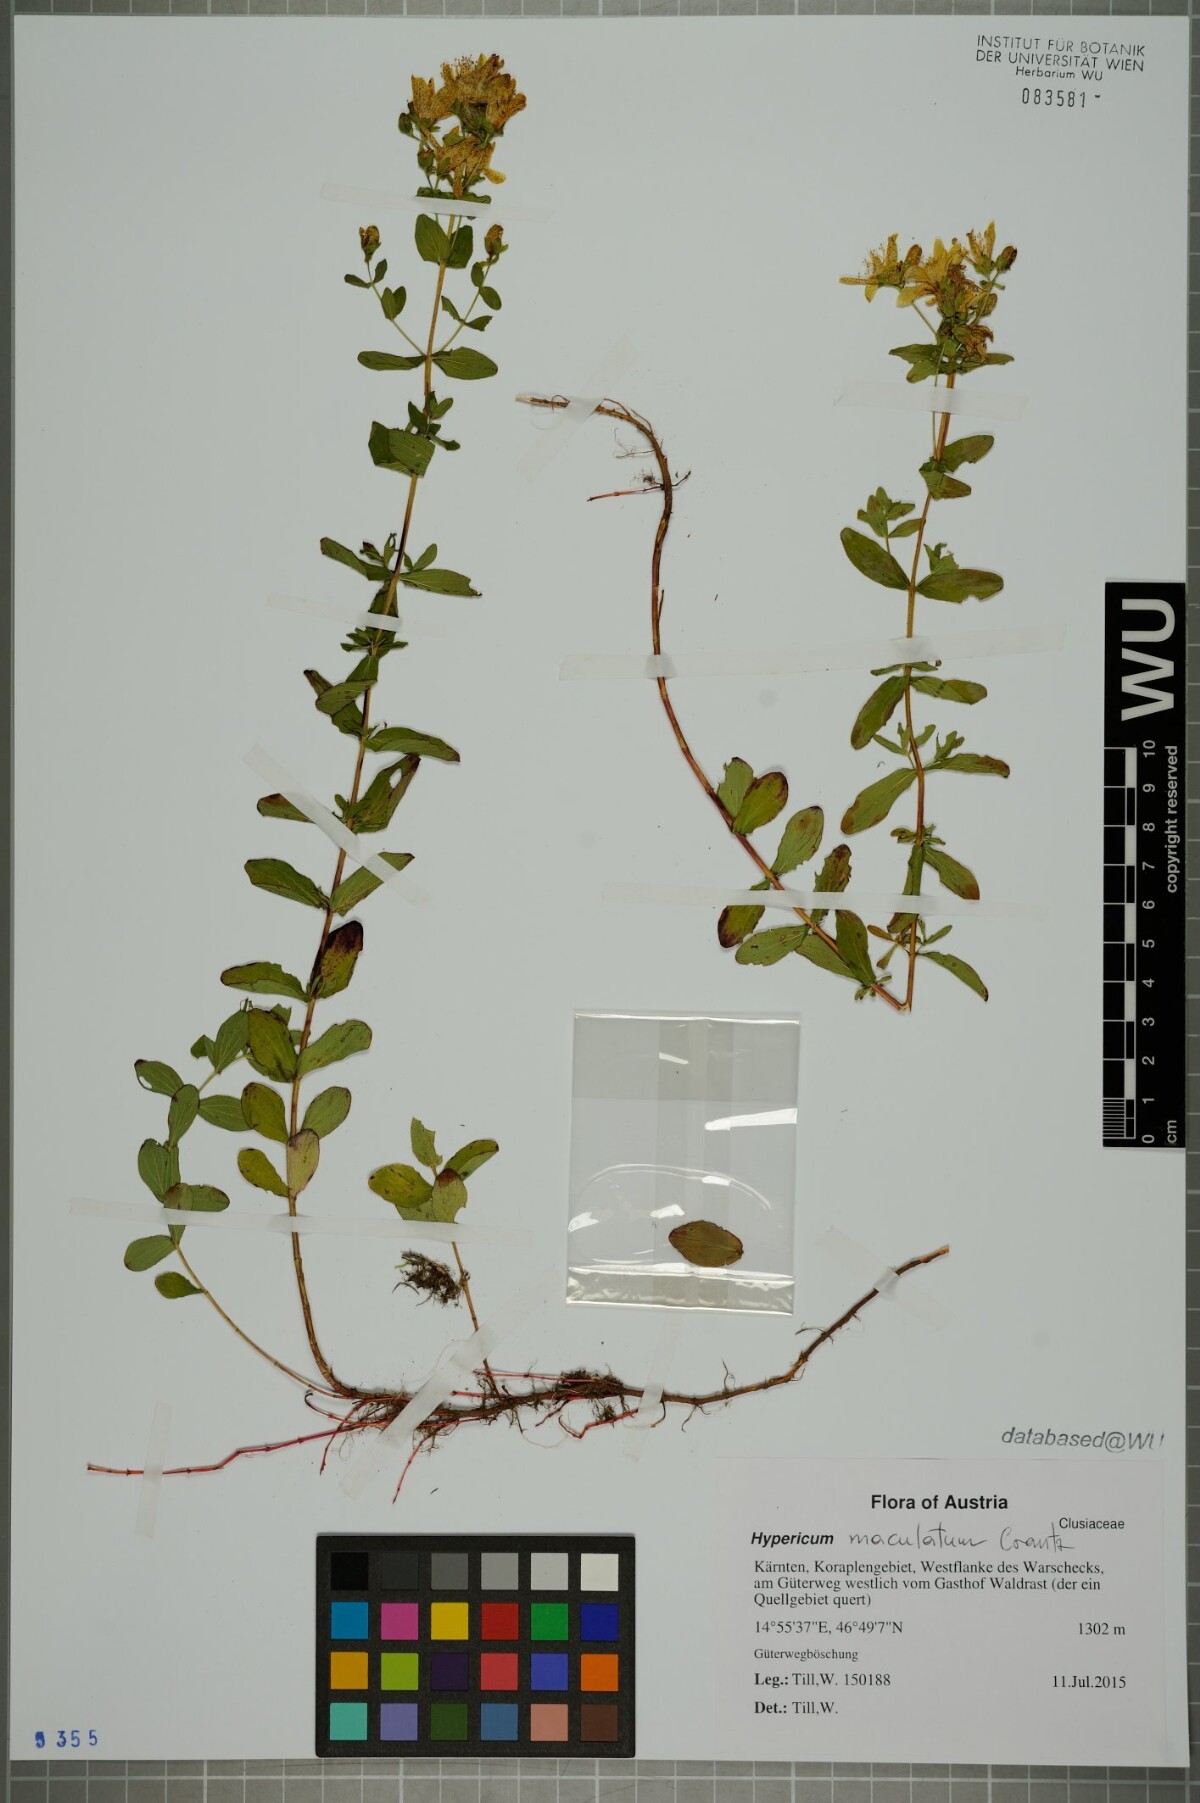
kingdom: Plantae
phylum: Tracheophyta
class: Magnoliopsida
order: Malpighiales
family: Hypericaceae
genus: Hypericum
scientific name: Hypericum maculatum
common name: Imperforate st. john's-wort
